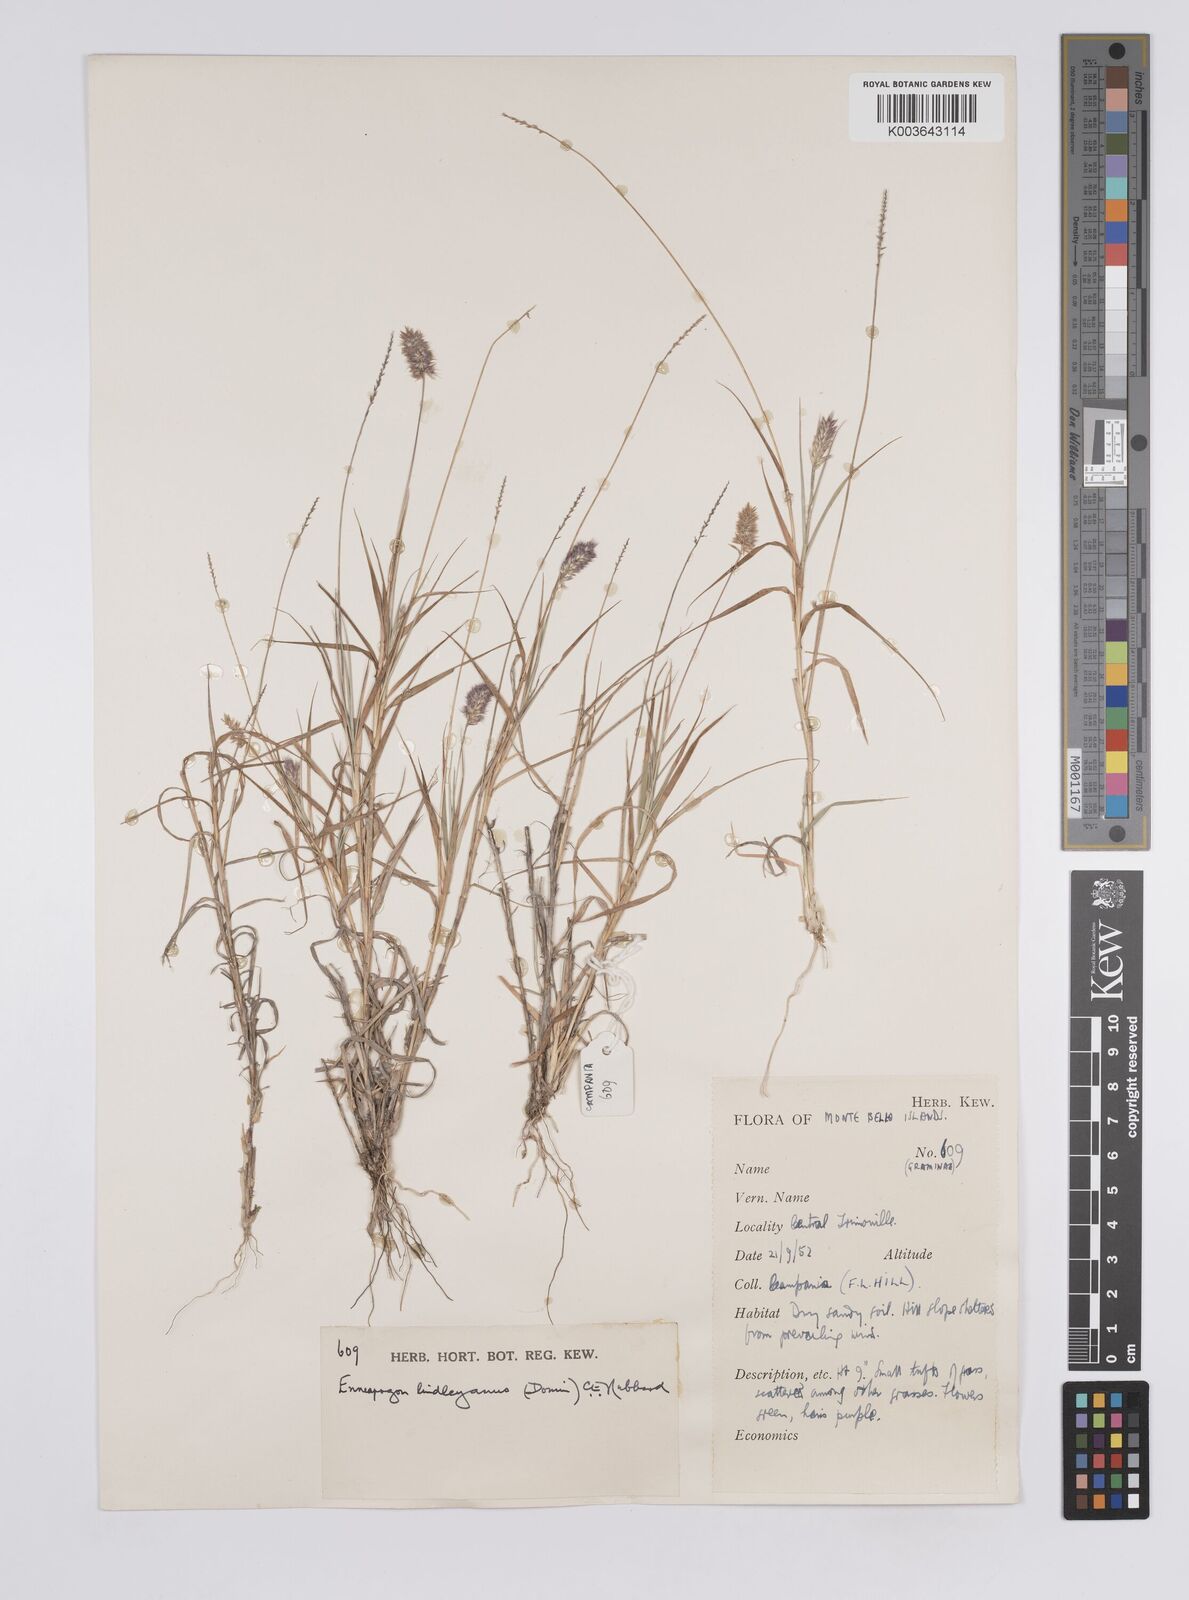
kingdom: Plantae
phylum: Tracheophyta
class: Liliopsida
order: Poales
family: Poaceae
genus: Enneapogon
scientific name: Enneapogon lindleyanus
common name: Conetop nineawn
